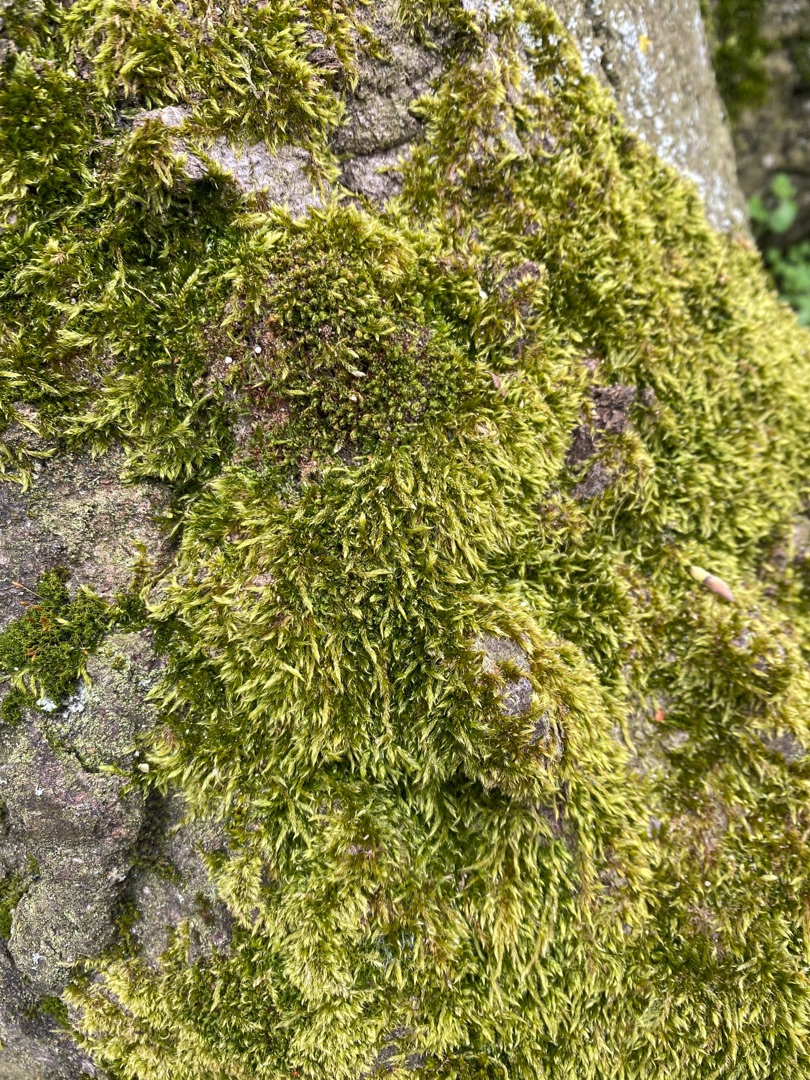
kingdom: Plantae
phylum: Bryophyta
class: Bryopsida
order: Hypnales
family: Hypnaceae
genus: Hypnum
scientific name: Hypnum cupressiforme
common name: Almindelig cypresmos
